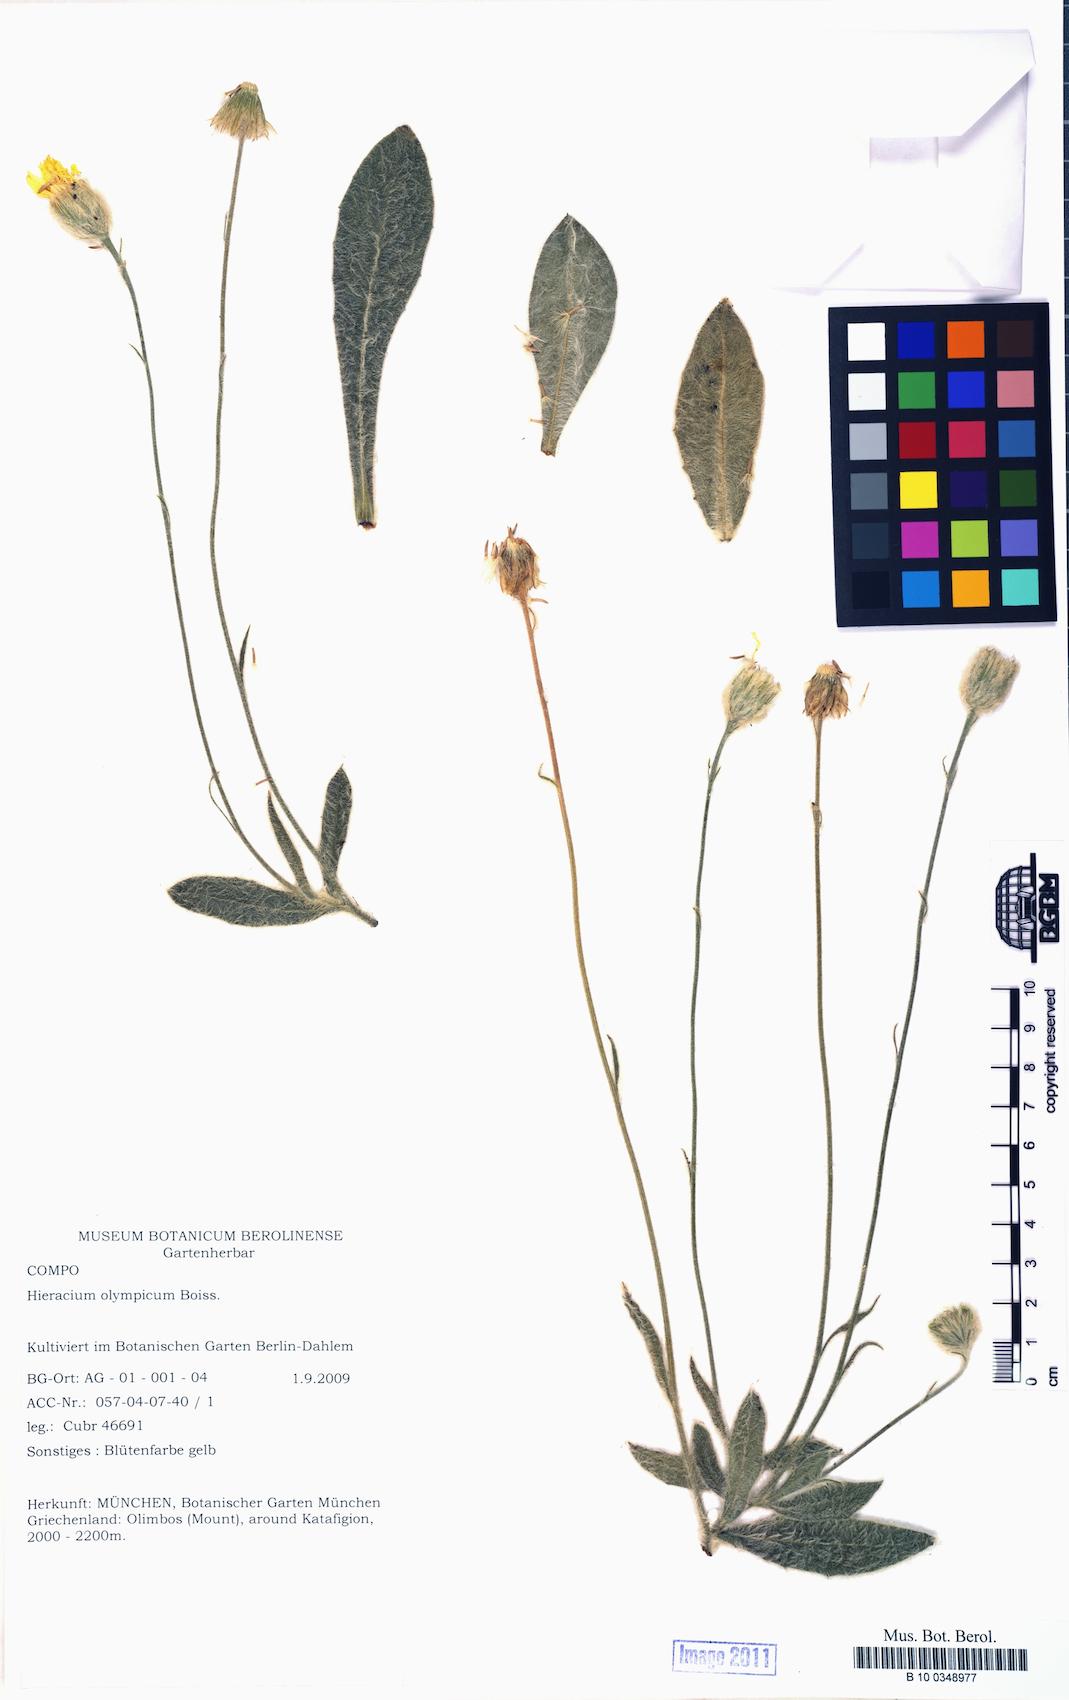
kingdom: Plantae
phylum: Tracheophyta
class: Magnoliopsida
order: Asterales
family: Asteraceae
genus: Hieracium
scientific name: Hieracium olympicum
